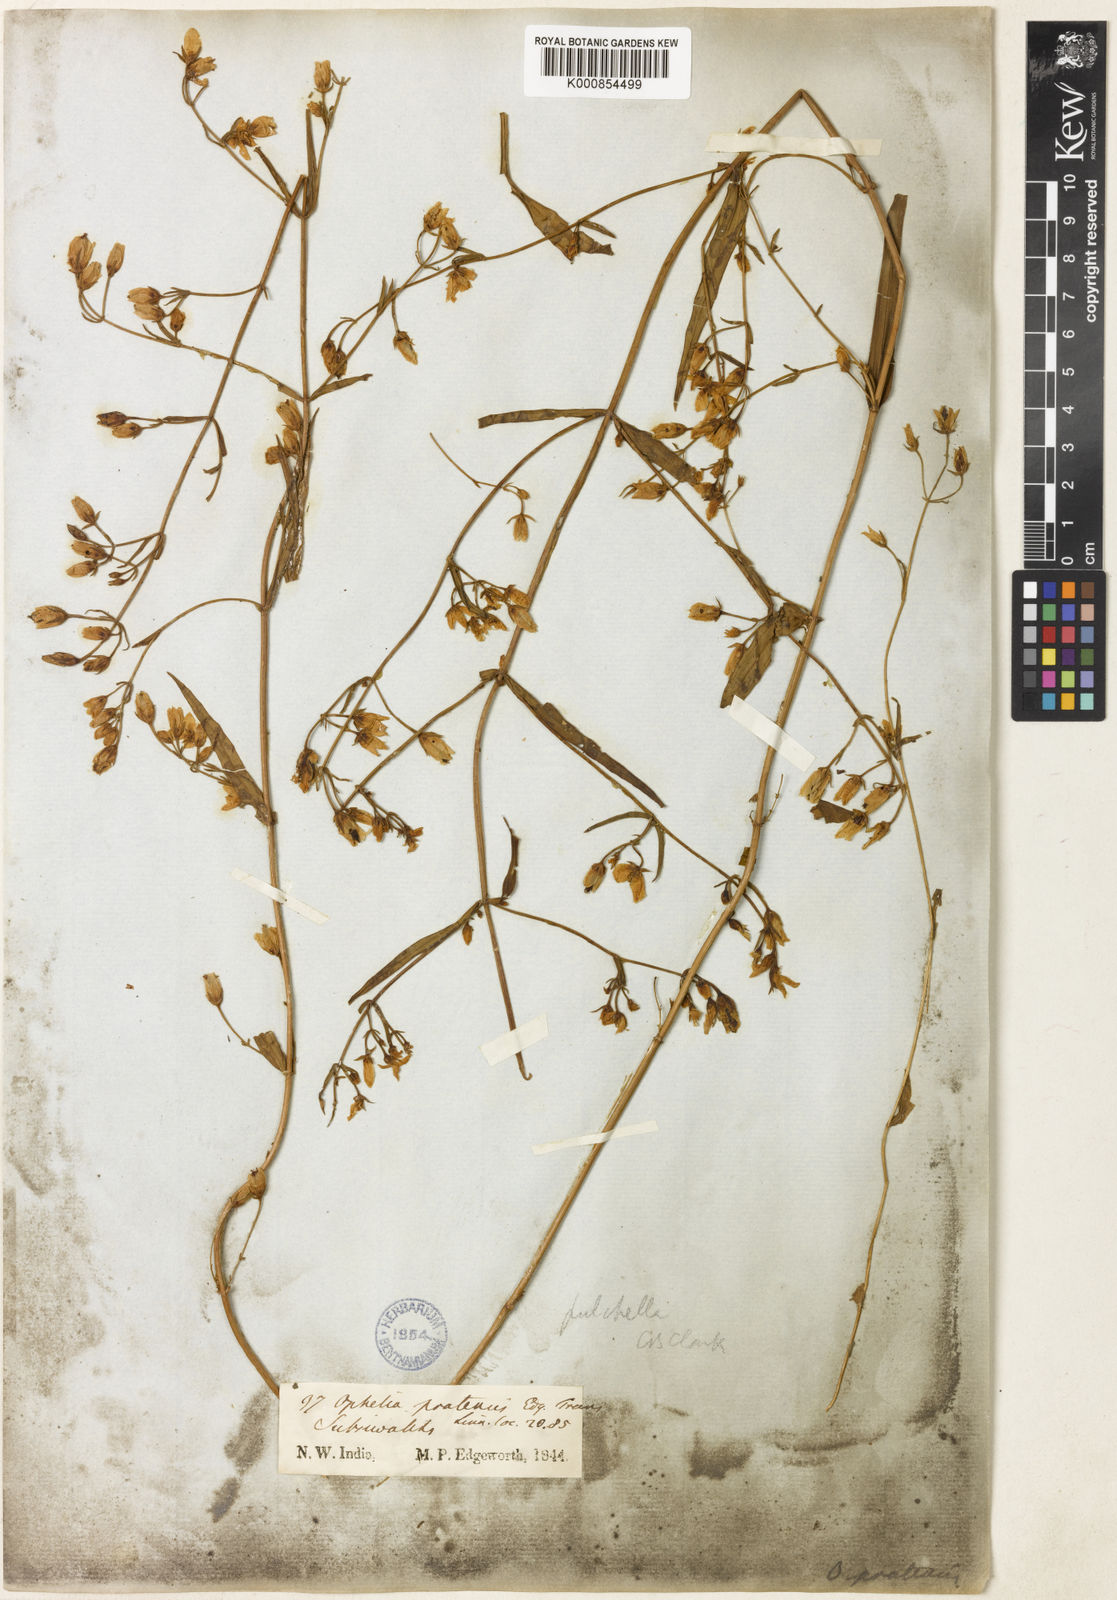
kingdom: Plantae
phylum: Tracheophyta
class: Magnoliopsida
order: Gentianales
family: Gentianaceae
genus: Swertia
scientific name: Swertia
